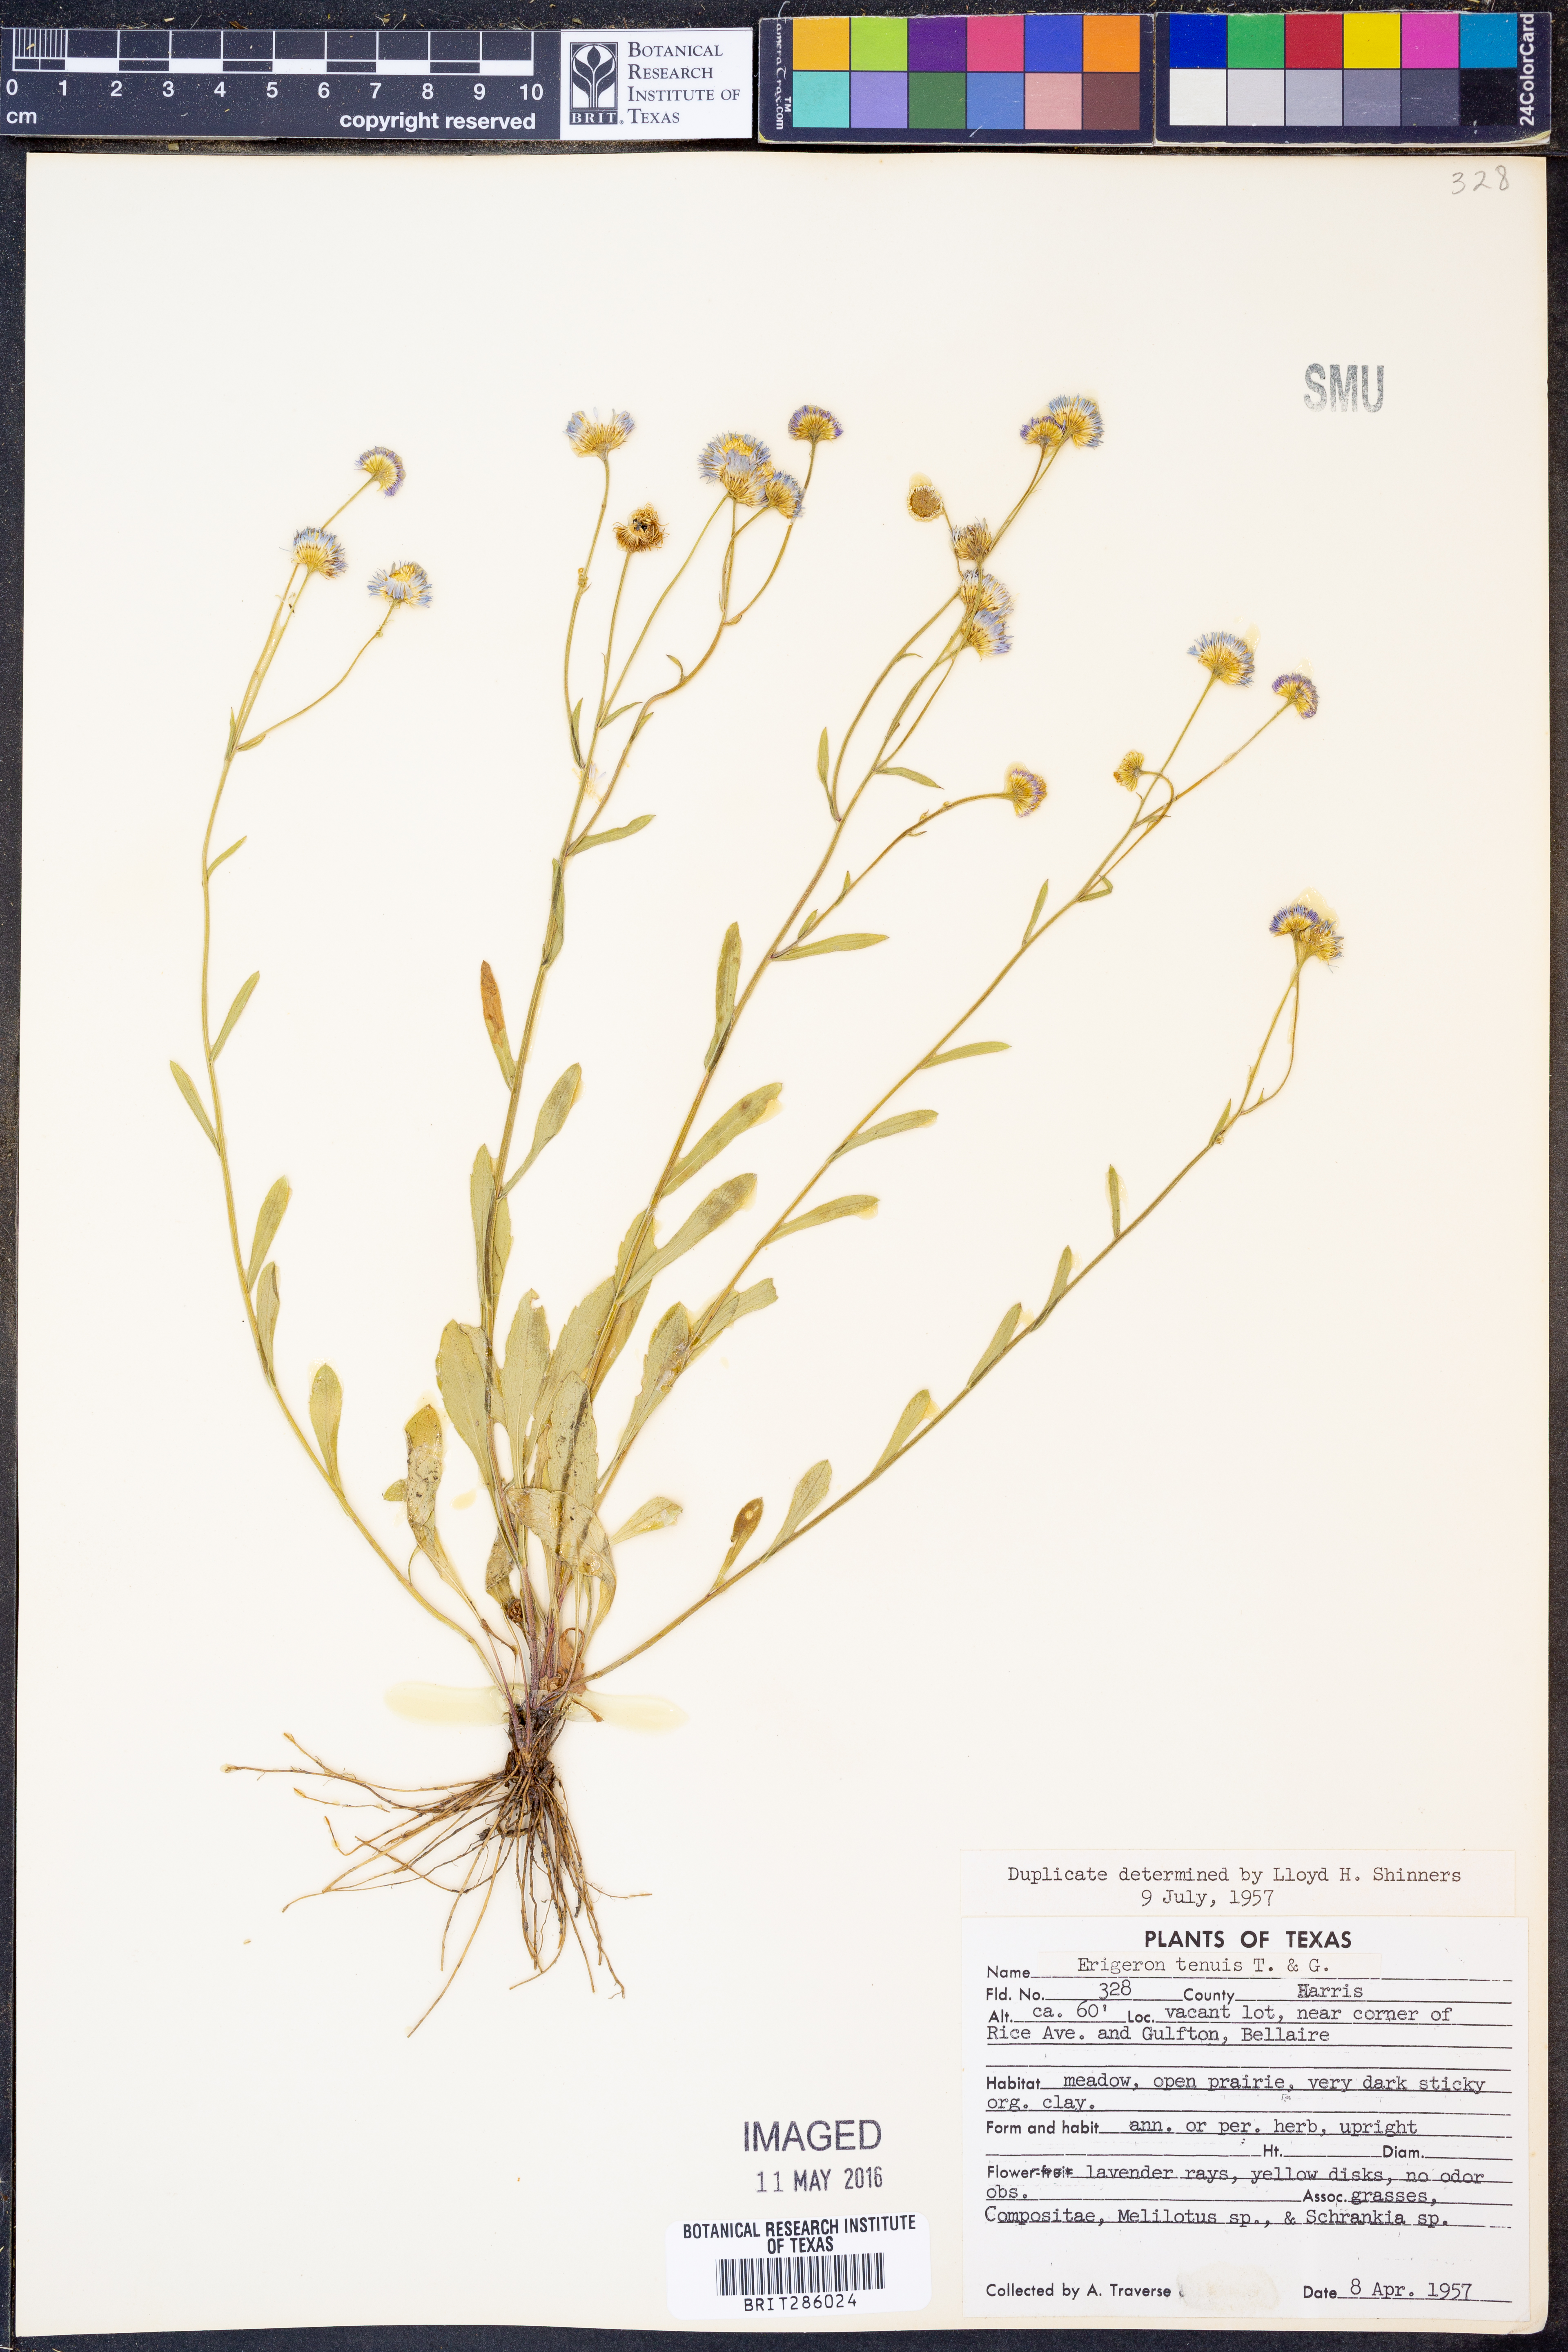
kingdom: Plantae
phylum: Tracheophyta
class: Magnoliopsida
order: Asterales
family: Asteraceae
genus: Erigeron
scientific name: Erigeron tenuis
